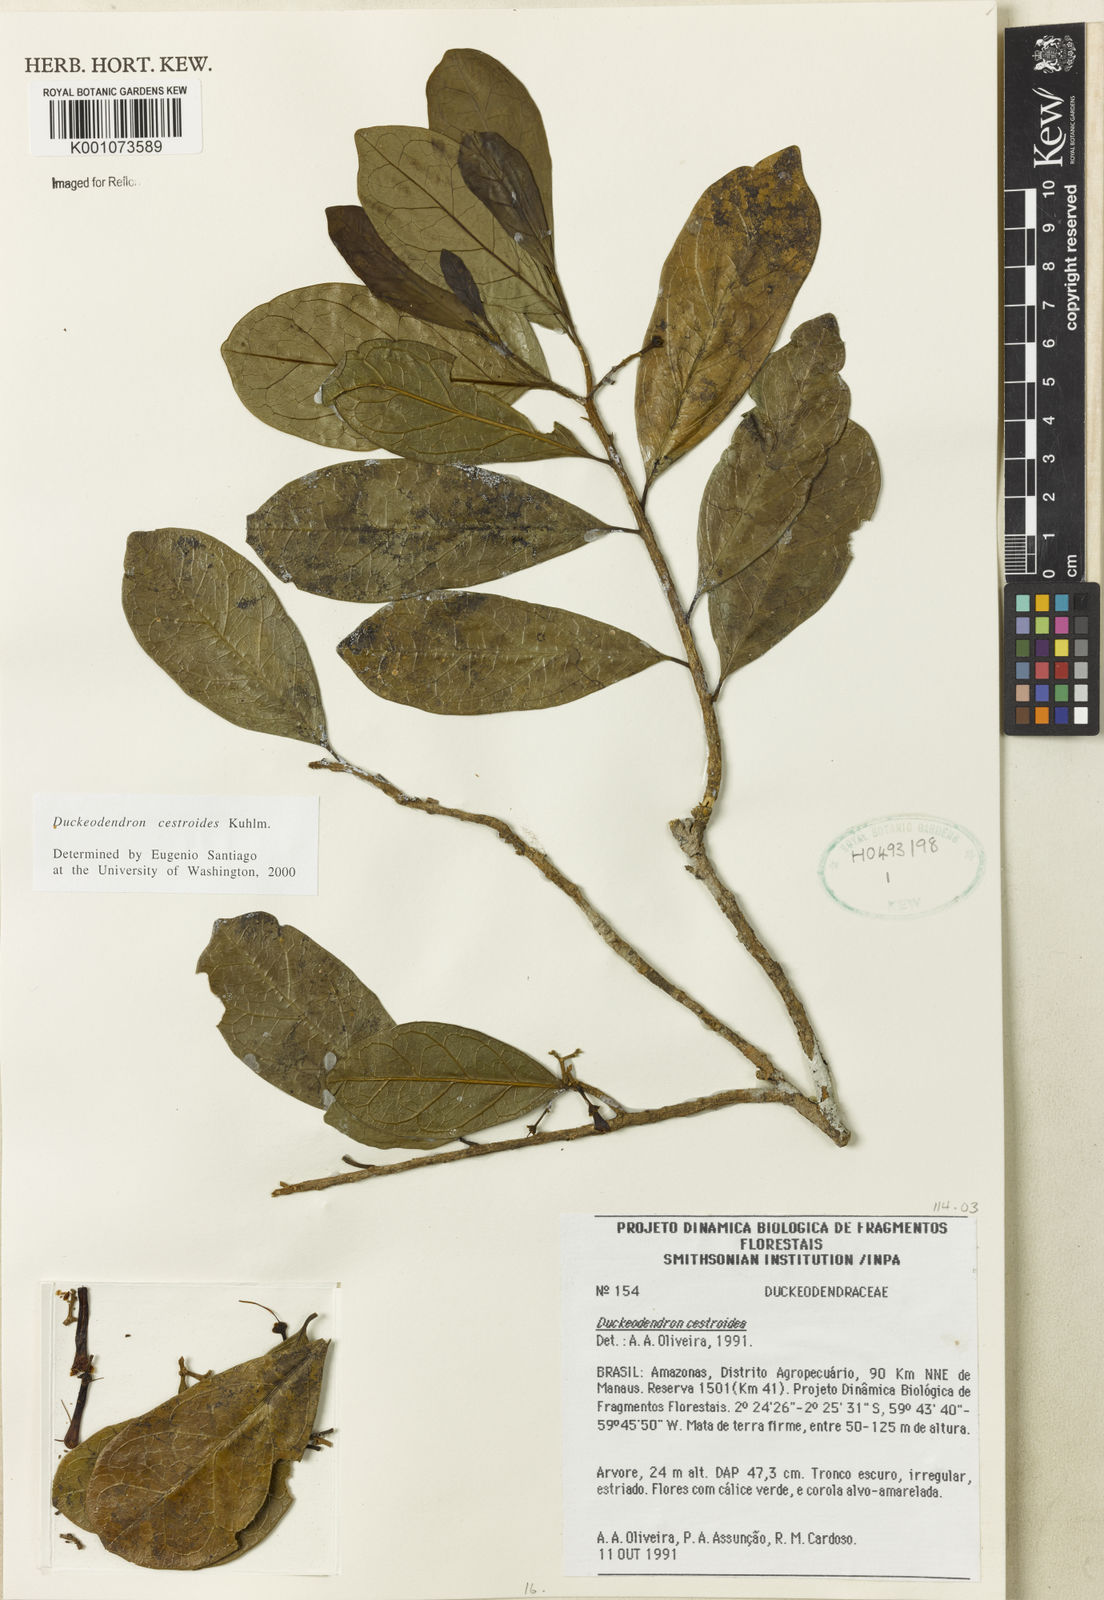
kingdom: Plantae
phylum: Tracheophyta
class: Magnoliopsida
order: Solanales
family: Solanaceae
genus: Duckeodendron
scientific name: Duckeodendron cestroides
